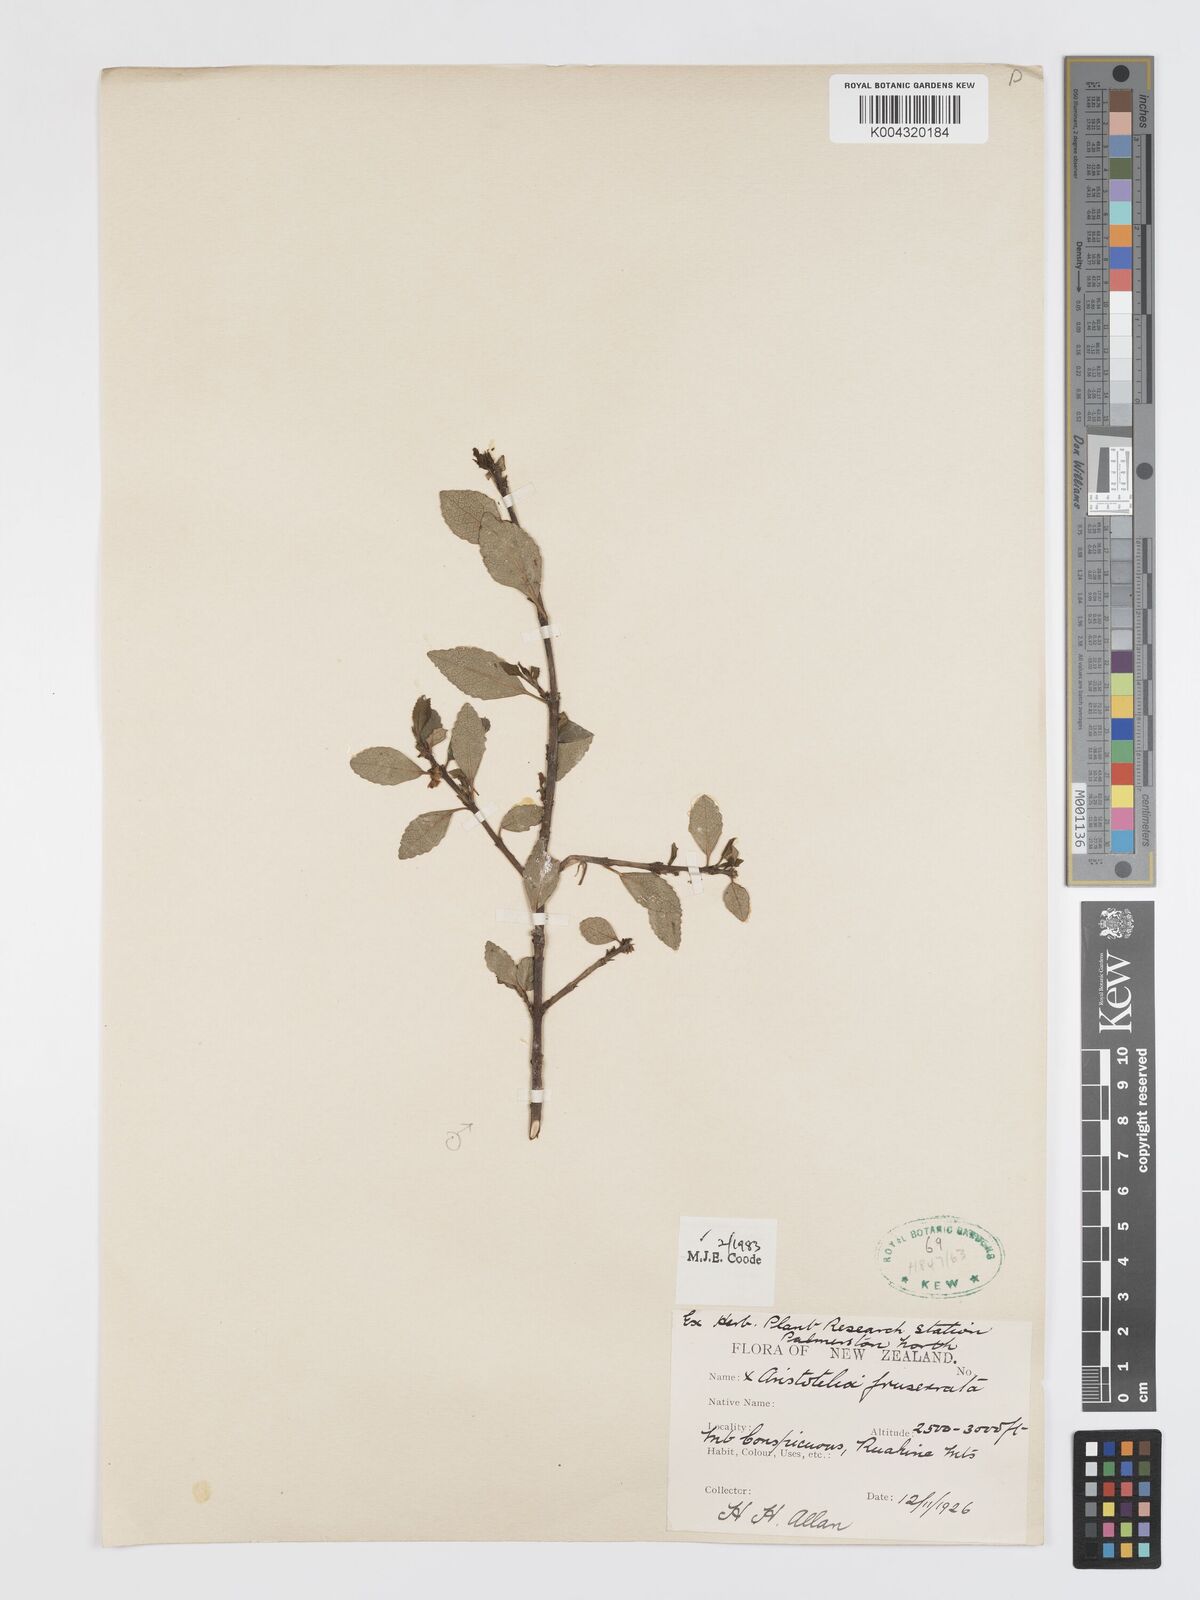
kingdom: Plantae
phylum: Tracheophyta
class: Magnoliopsida
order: Oxalidales
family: Elaeocarpaceae
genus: Aristotelia
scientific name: Aristotelia fruticosa
